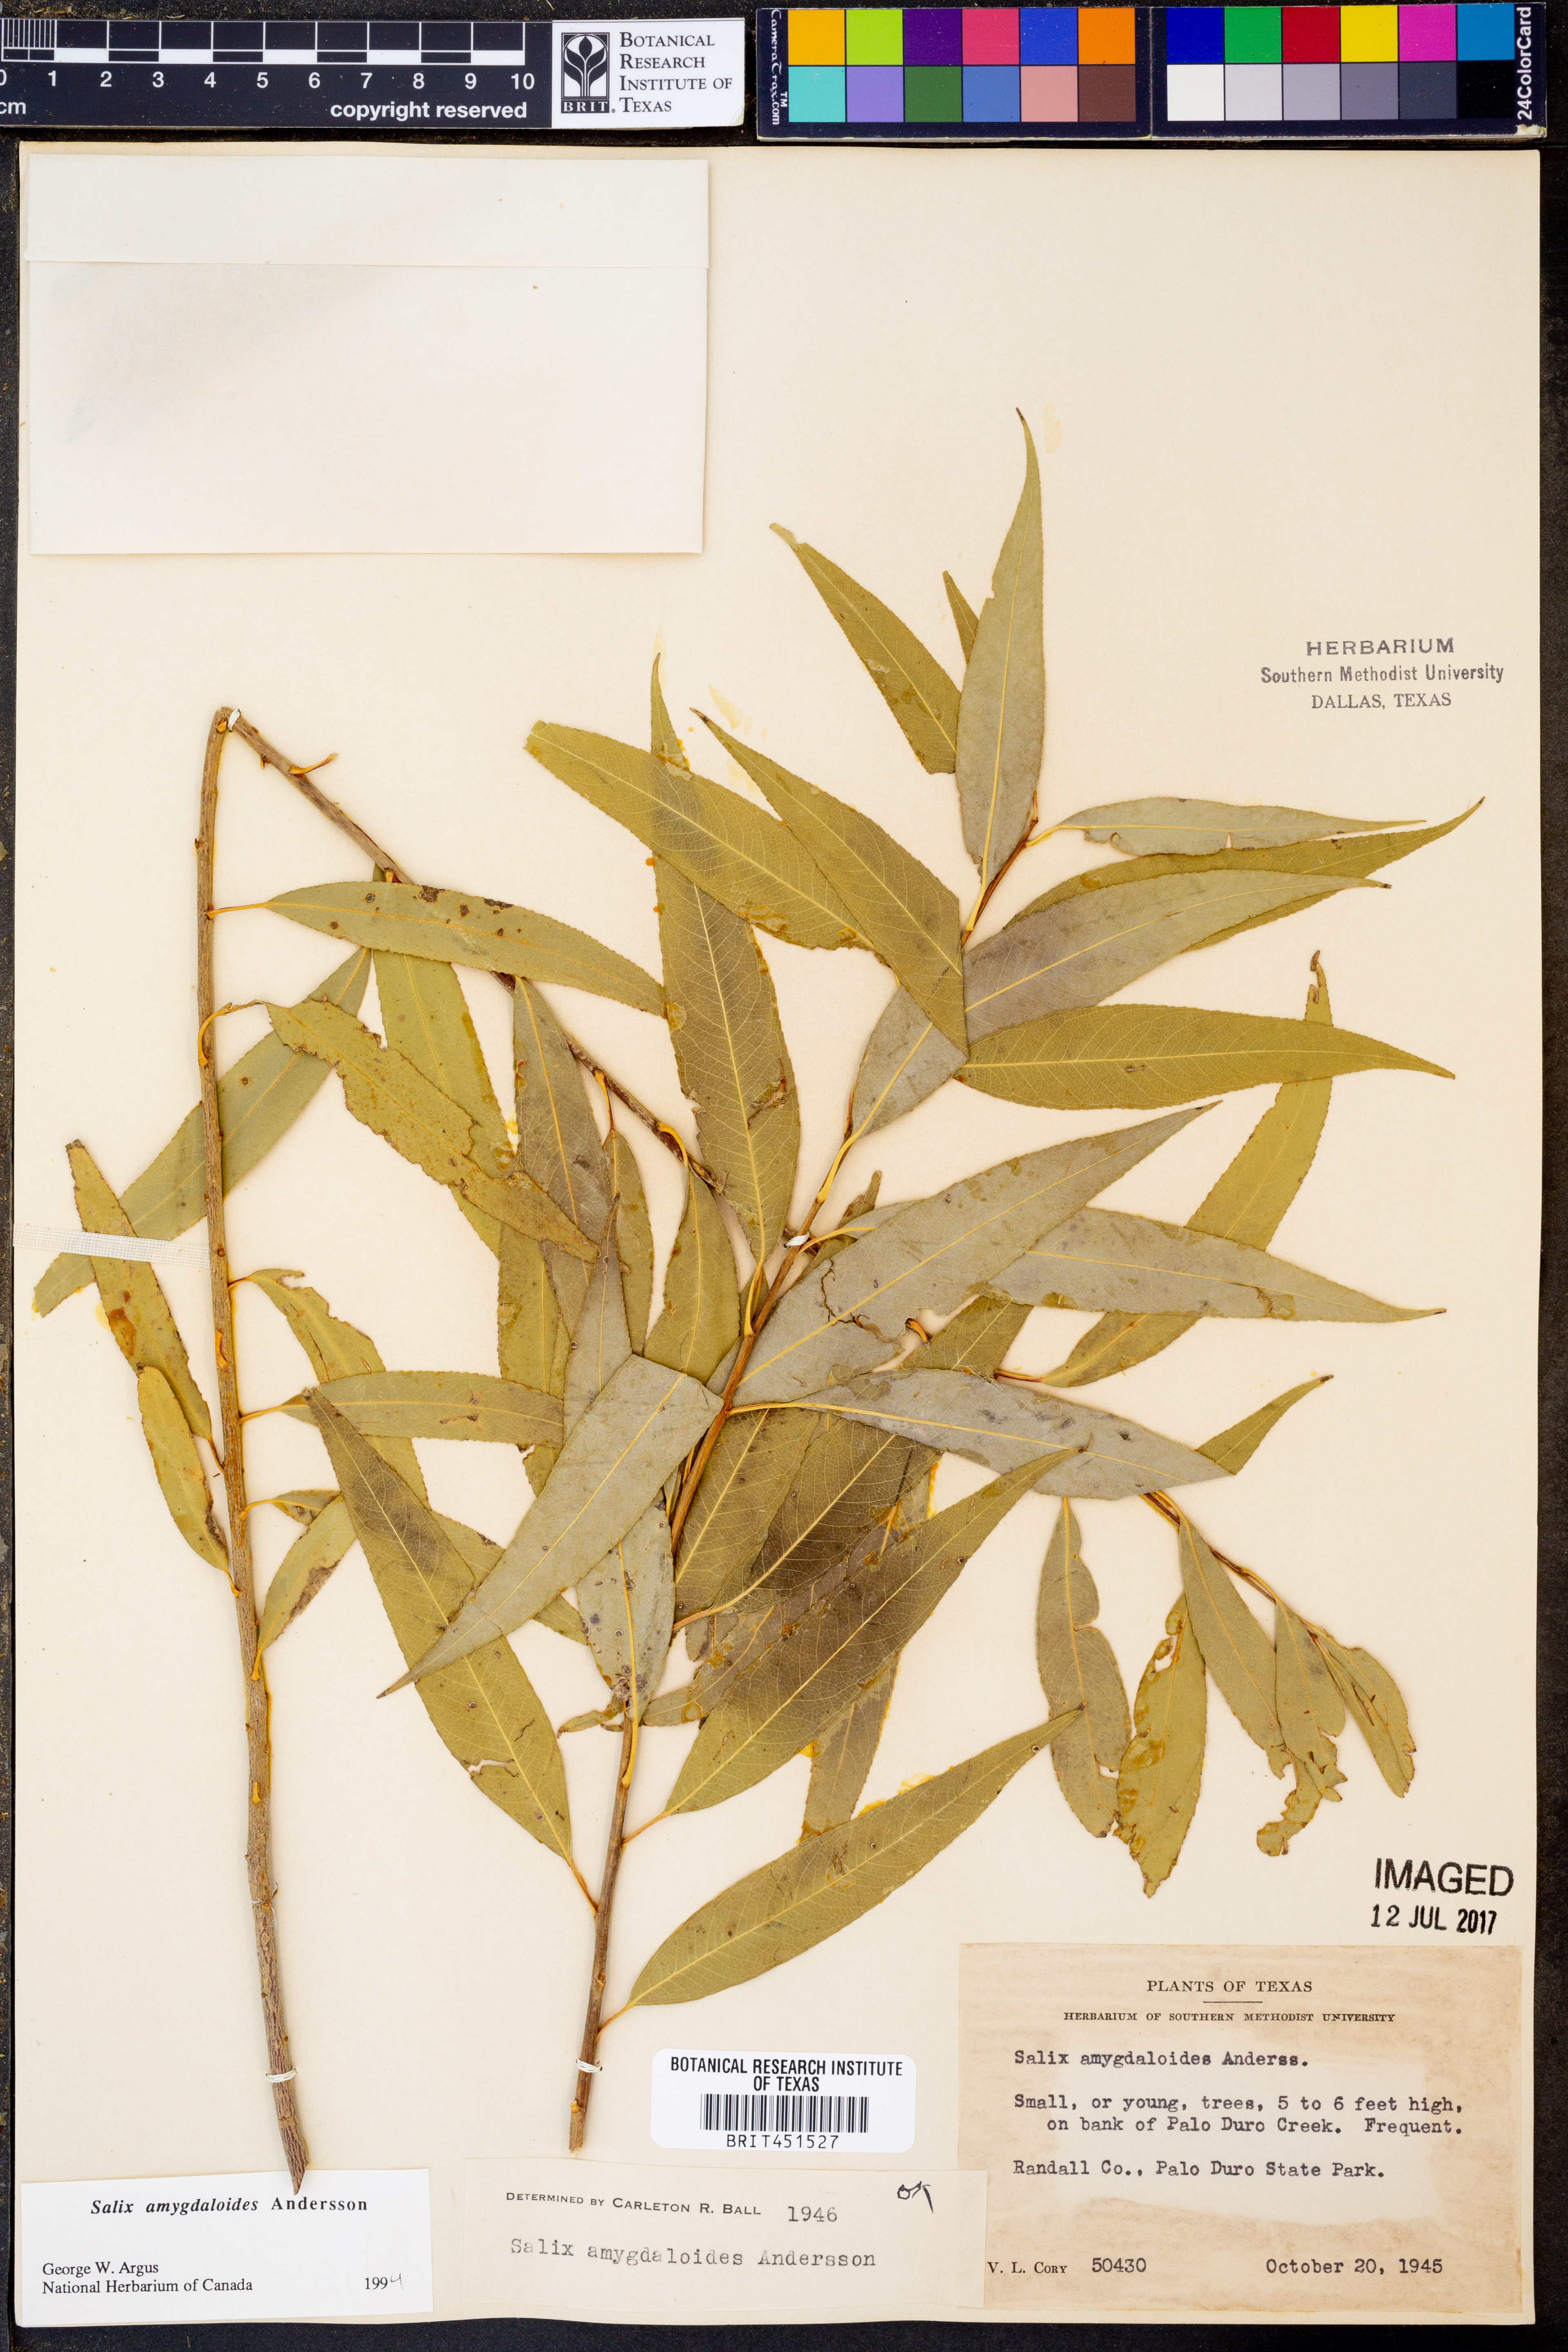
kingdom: Plantae
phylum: Tracheophyta
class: Magnoliopsida
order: Malpighiales
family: Salicaceae
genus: Salix
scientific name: Salix amygdaloides
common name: Peach leaf willow
